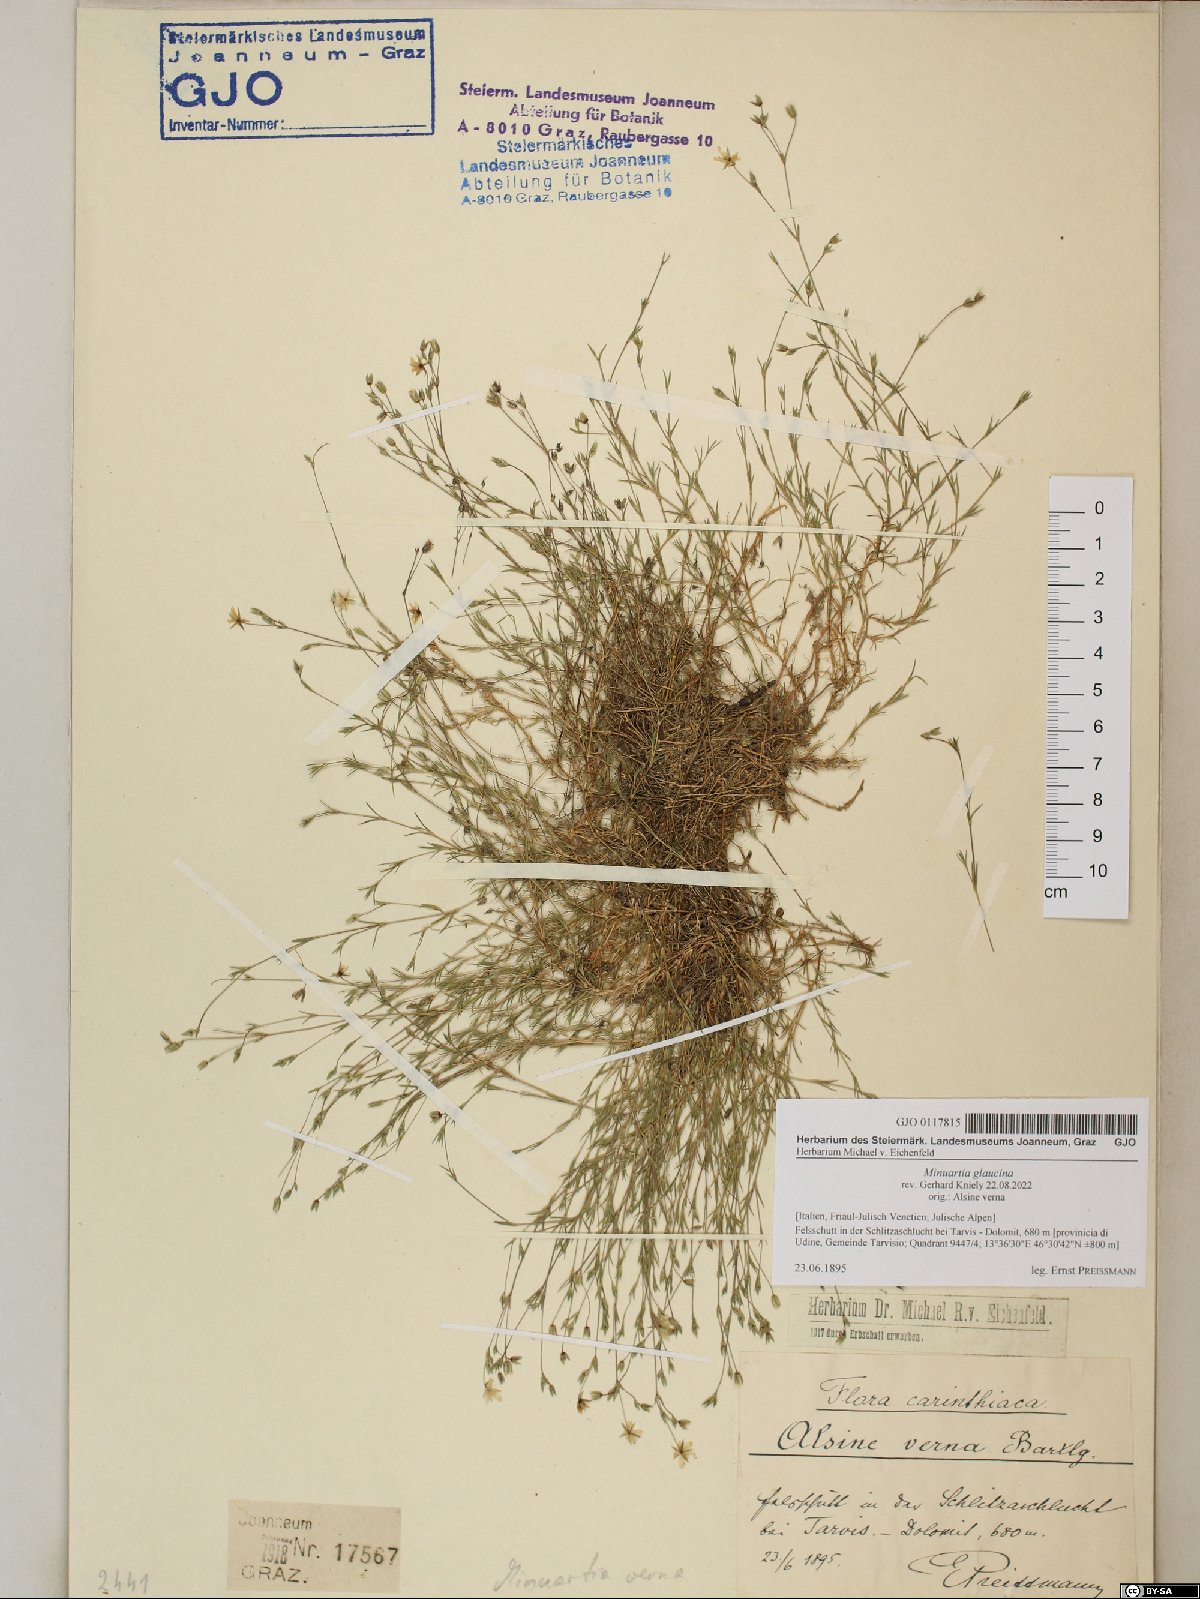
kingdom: Plantae
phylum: Tracheophyta
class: Magnoliopsida
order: Caryophyllales
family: Caryophyllaceae
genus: Sabulina
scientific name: Sabulina glaucina
